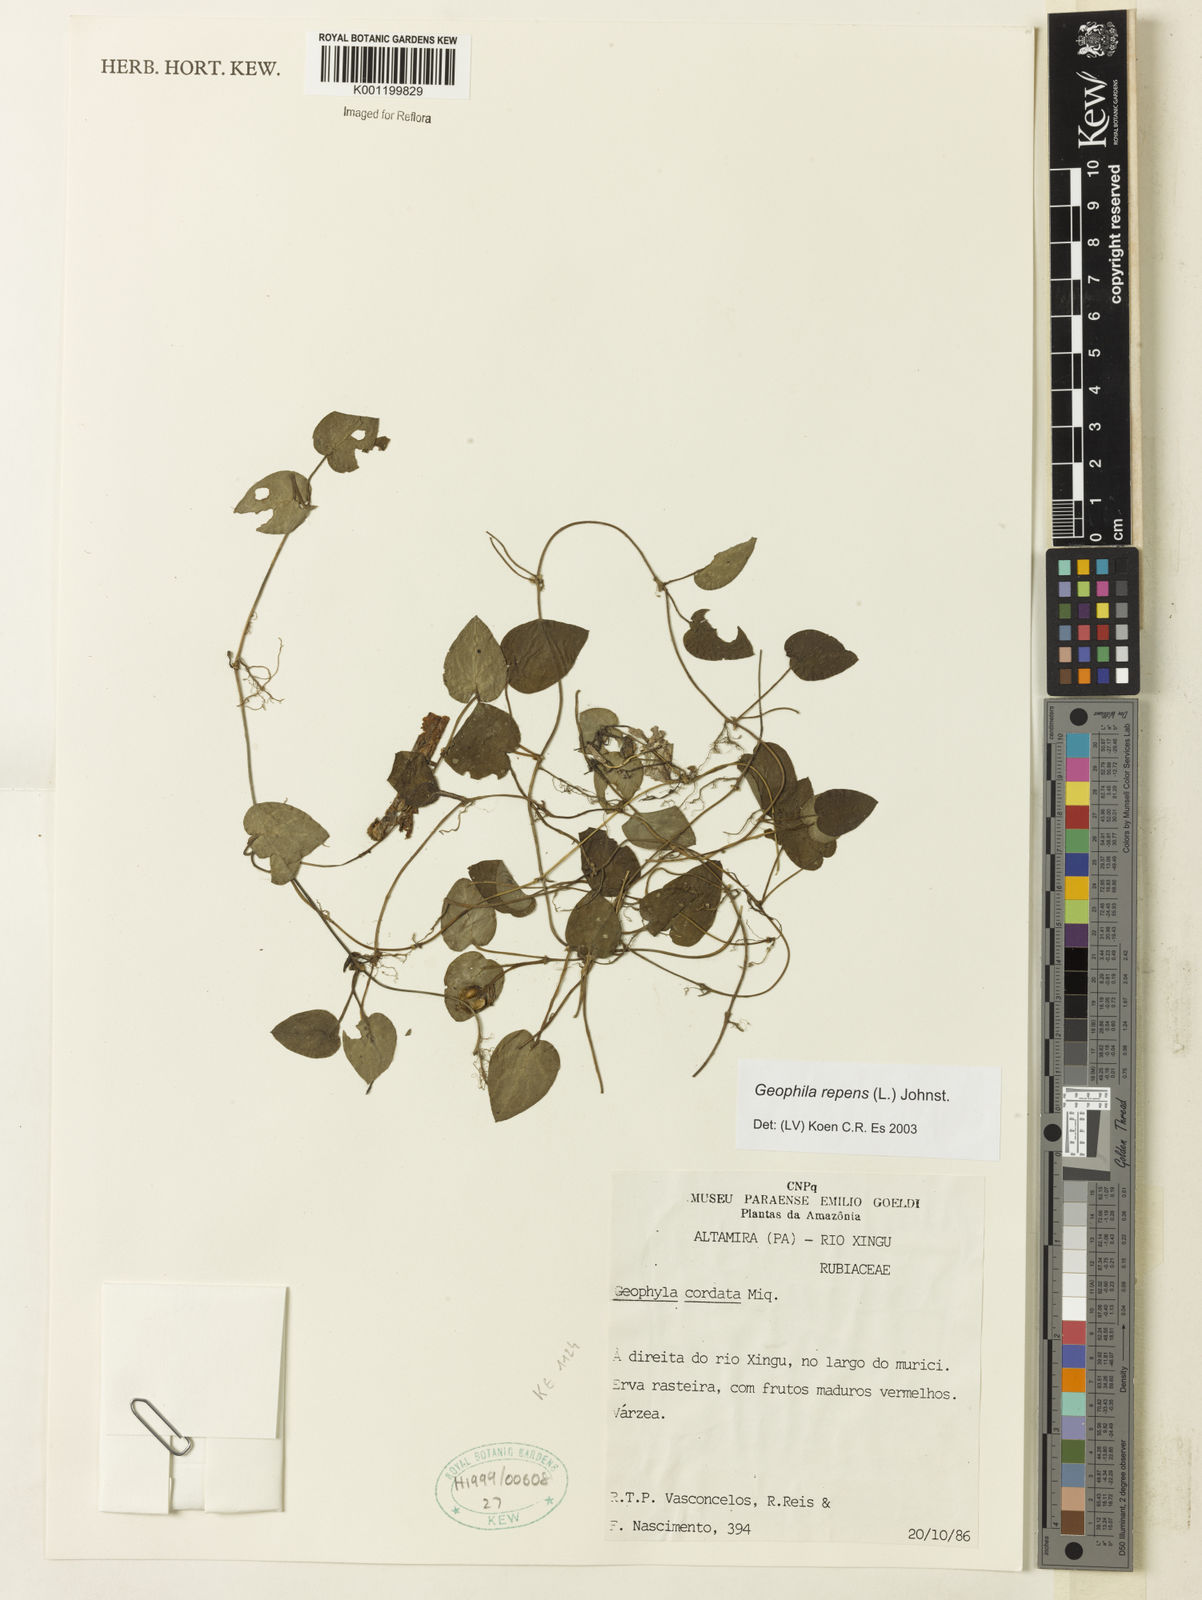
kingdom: Plantae
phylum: Tracheophyta
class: Magnoliopsida
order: Gentianales
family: Rubiaceae
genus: Geophila
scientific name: Geophila repens
